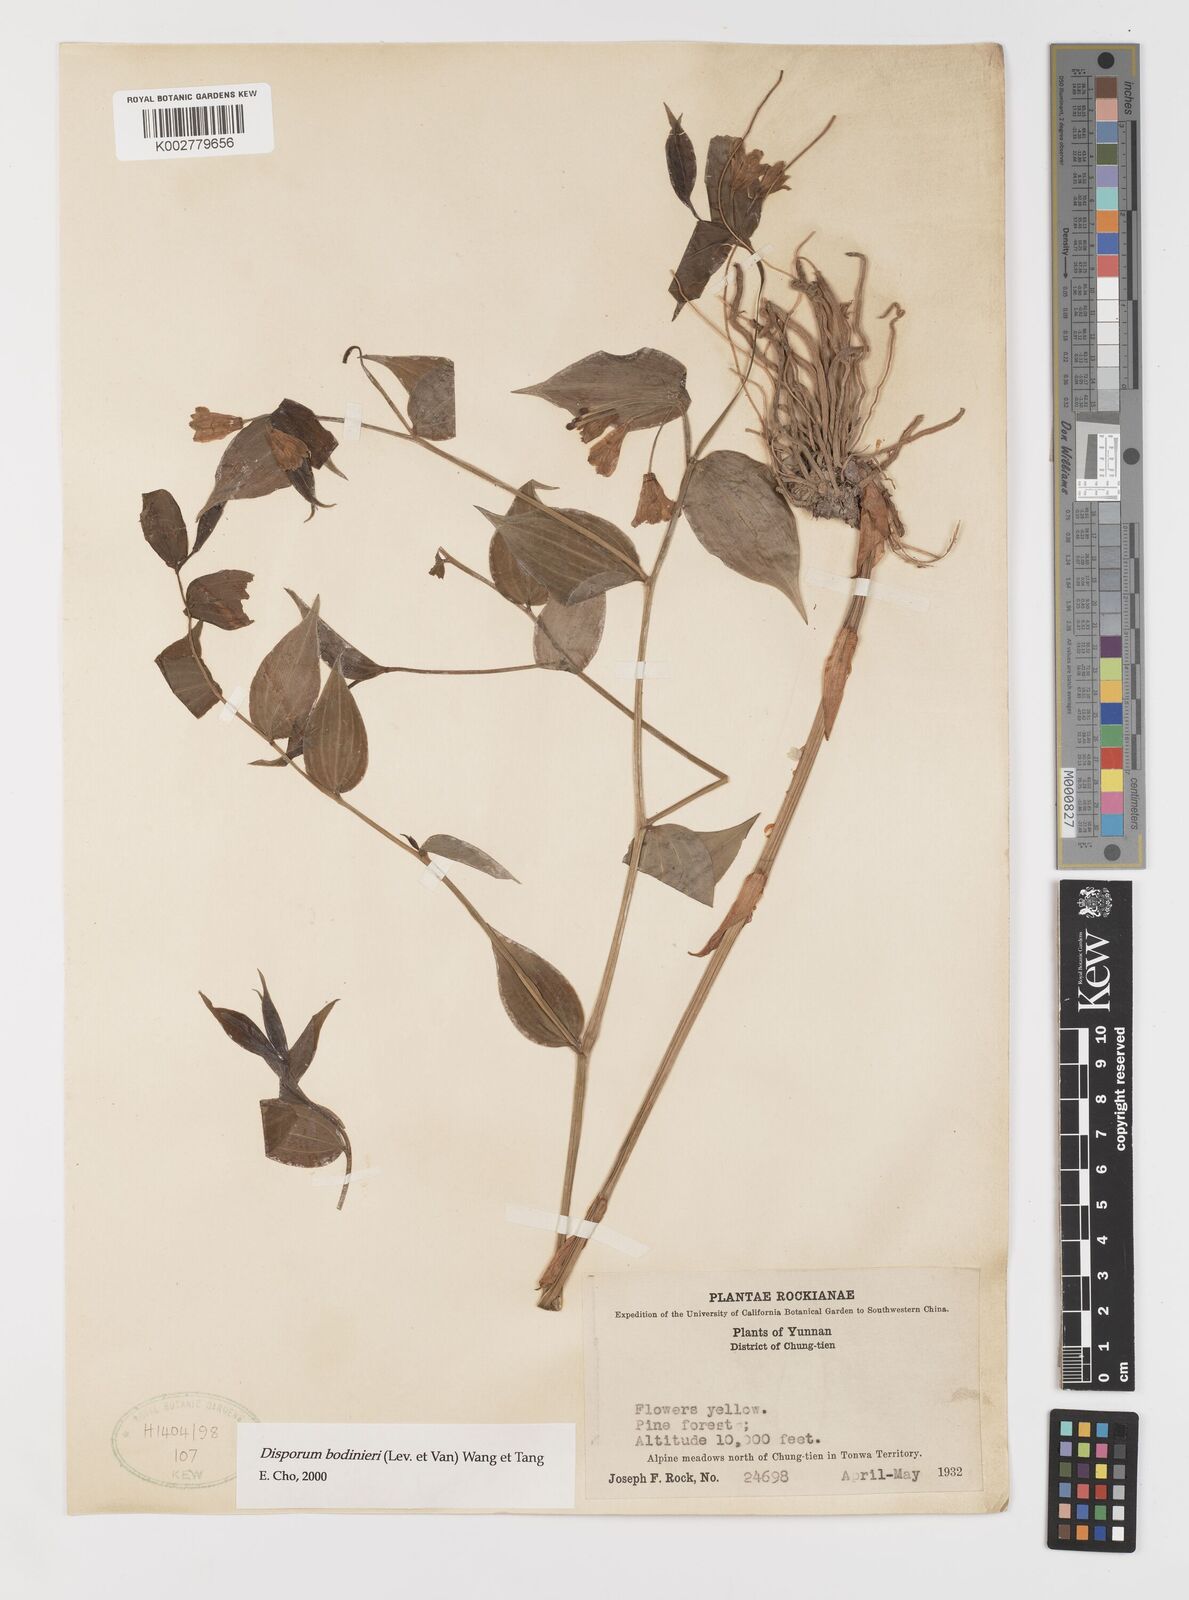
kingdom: Plantae
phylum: Tracheophyta
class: Liliopsida
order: Liliales
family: Colchicaceae
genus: Disporum
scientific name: Disporum bodinieri
